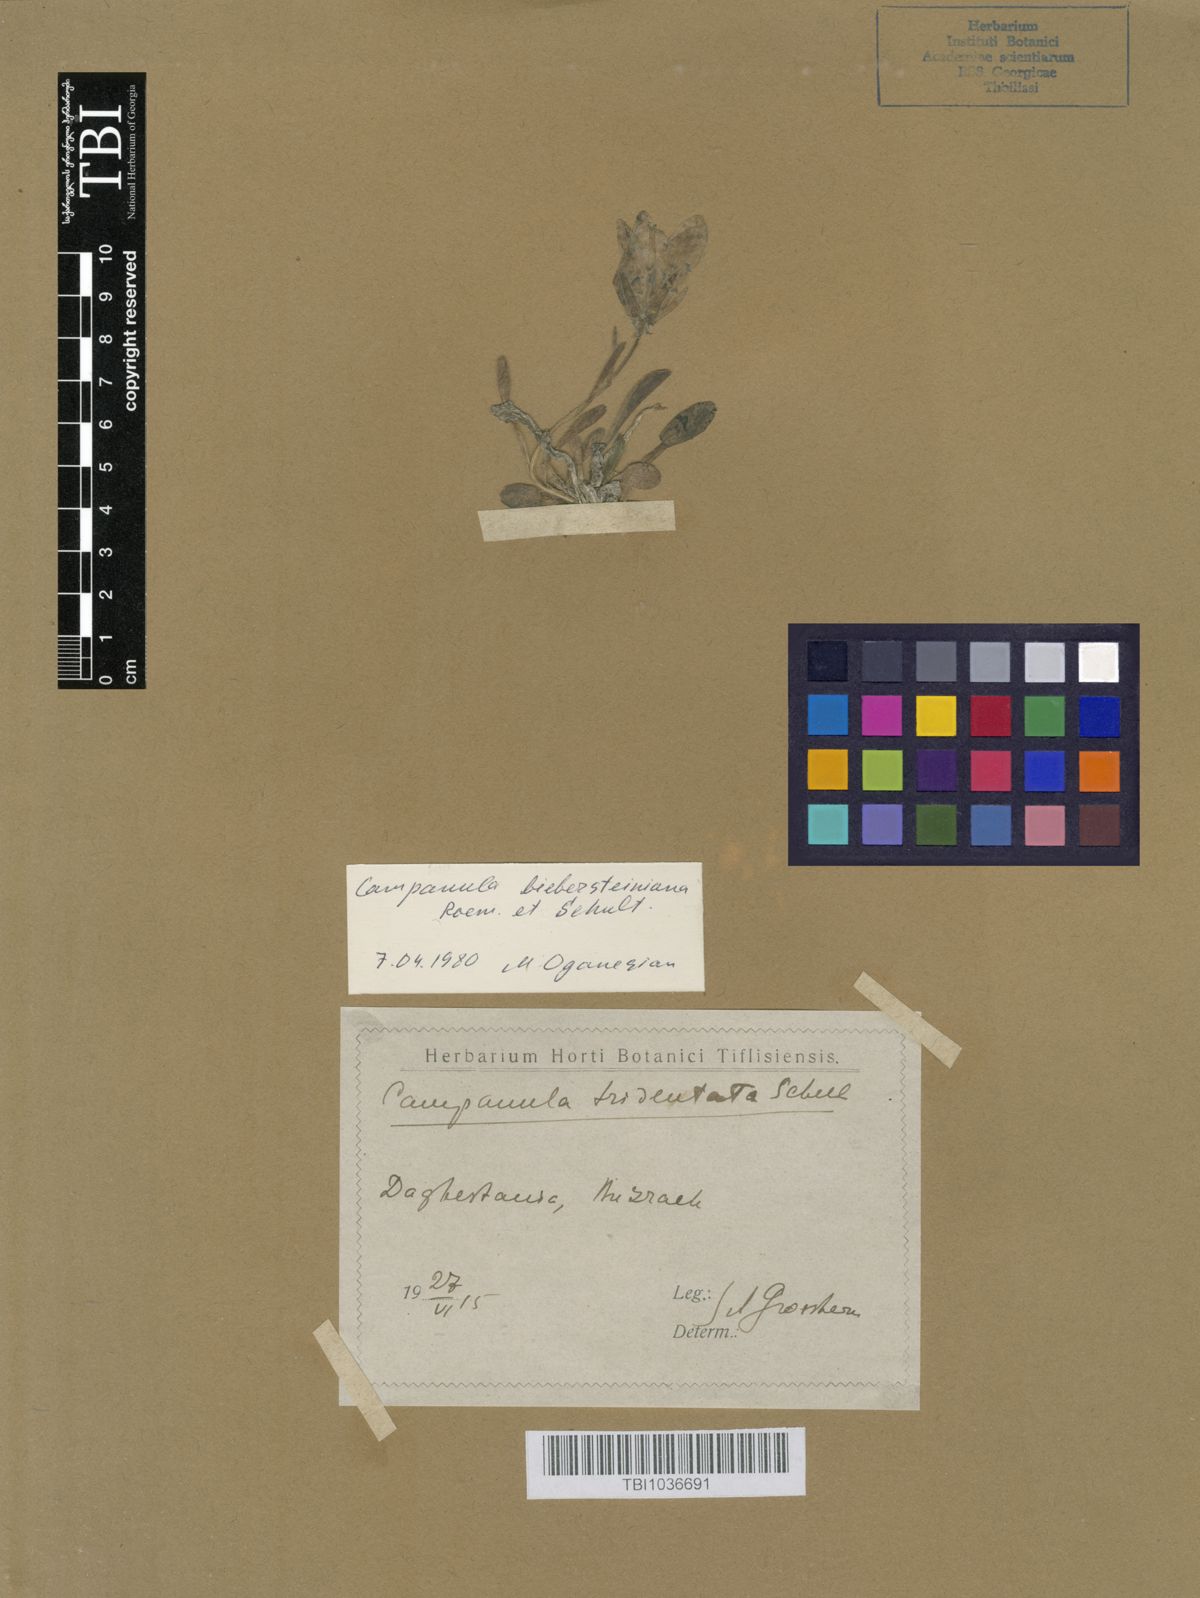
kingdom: Plantae
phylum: Tracheophyta
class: Magnoliopsida
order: Asterales
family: Campanulaceae
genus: Campanula
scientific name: Campanula tridentata
